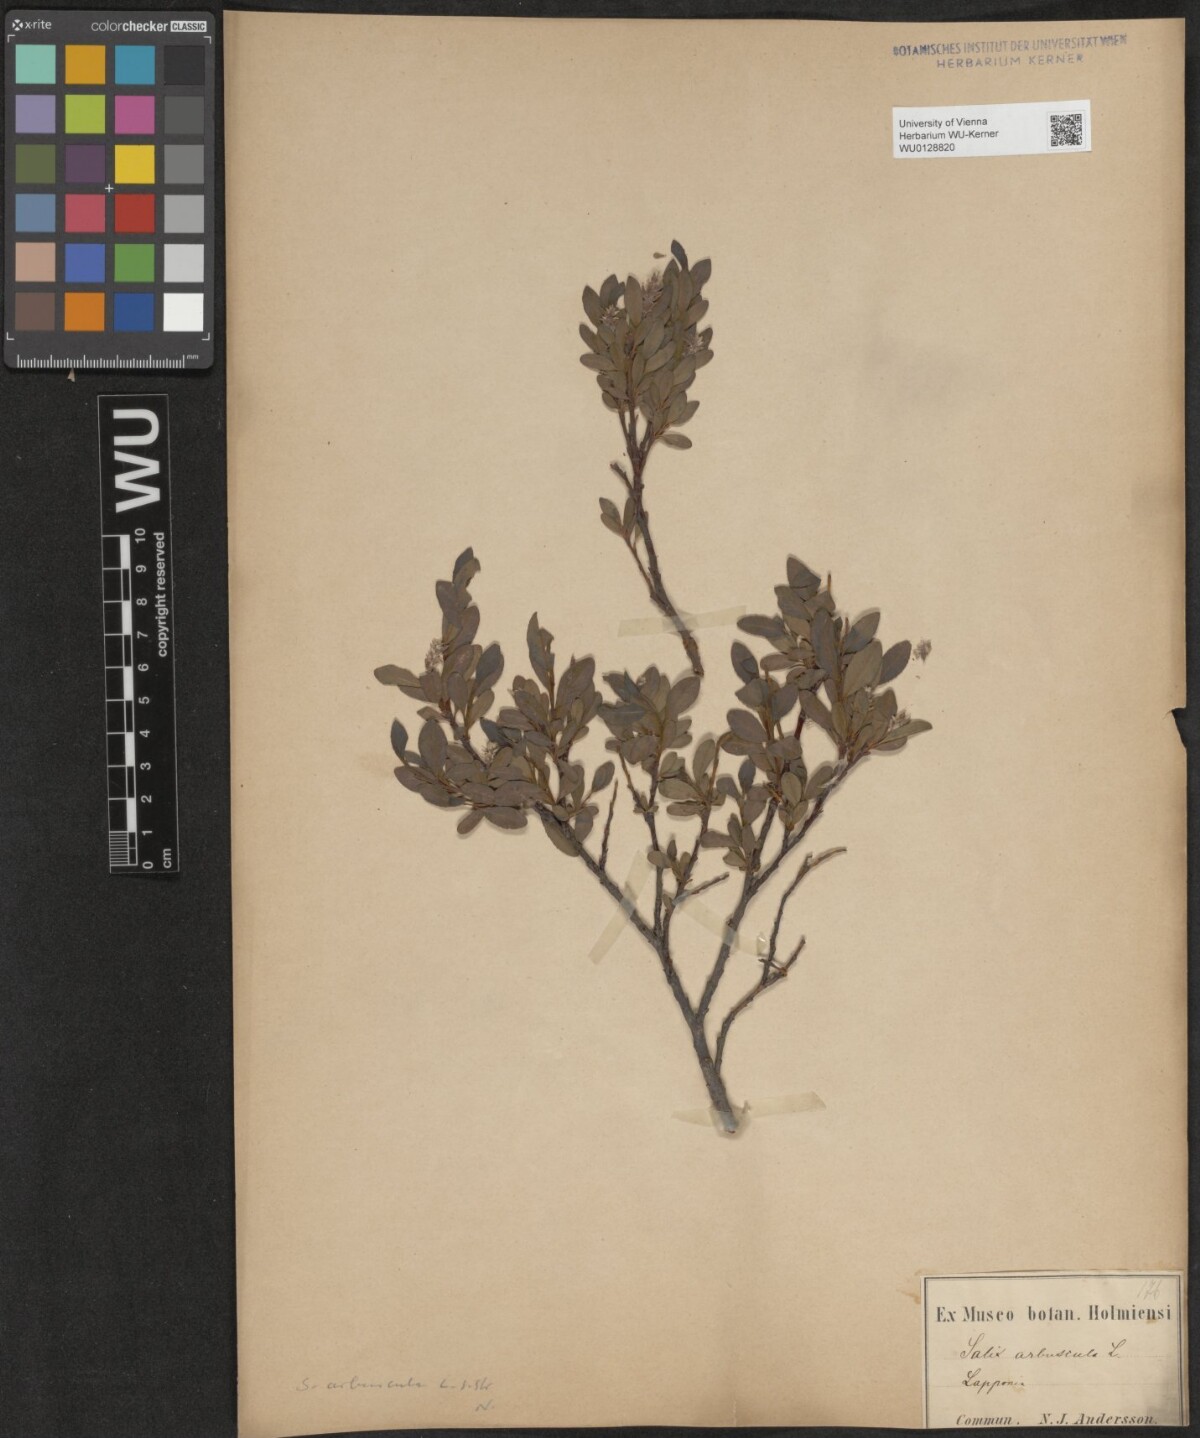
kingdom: Plantae
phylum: Tracheophyta
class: Magnoliopsida
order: Malpighiales
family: Salicaceae
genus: Salix
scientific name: Salix arbuscula
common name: Mountain willow
